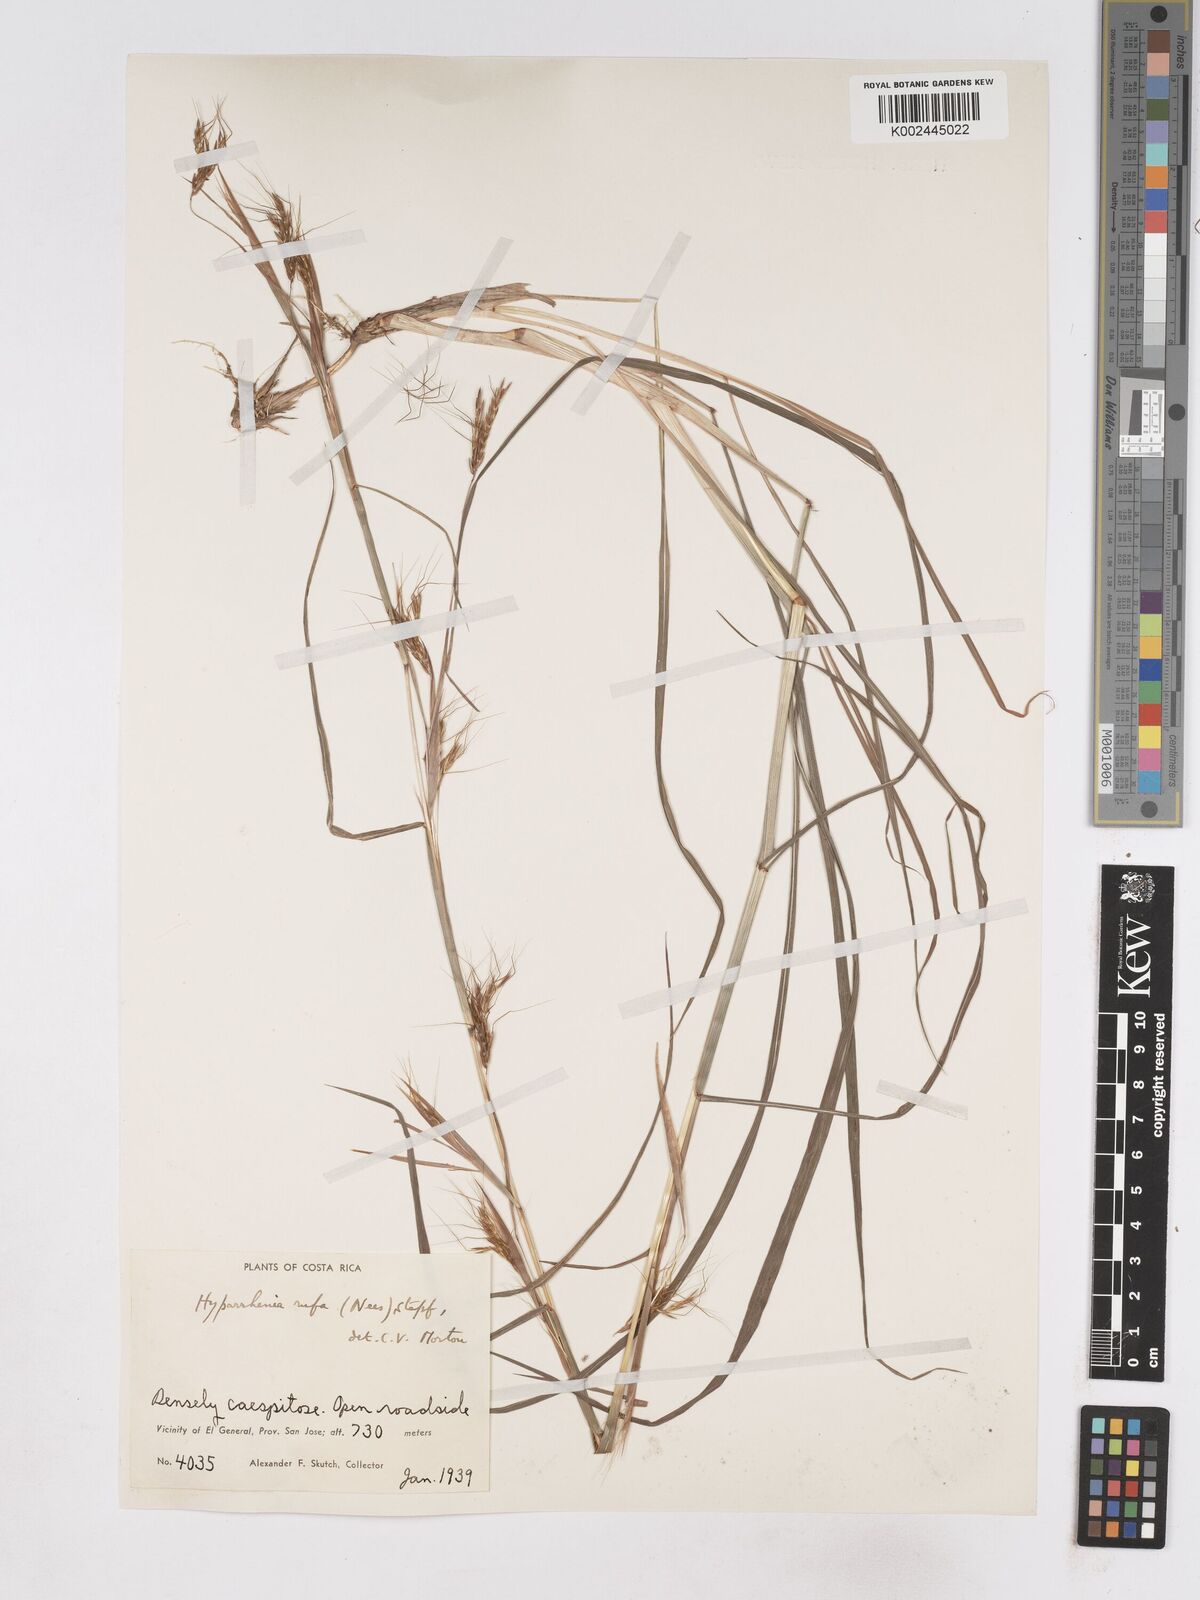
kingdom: Plantae
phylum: Tracheophyta
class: Liliopsida
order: Poales
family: Poaceae
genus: Hyparrhenia
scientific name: Hyparrhenia rufa
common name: Jaraguagrass
